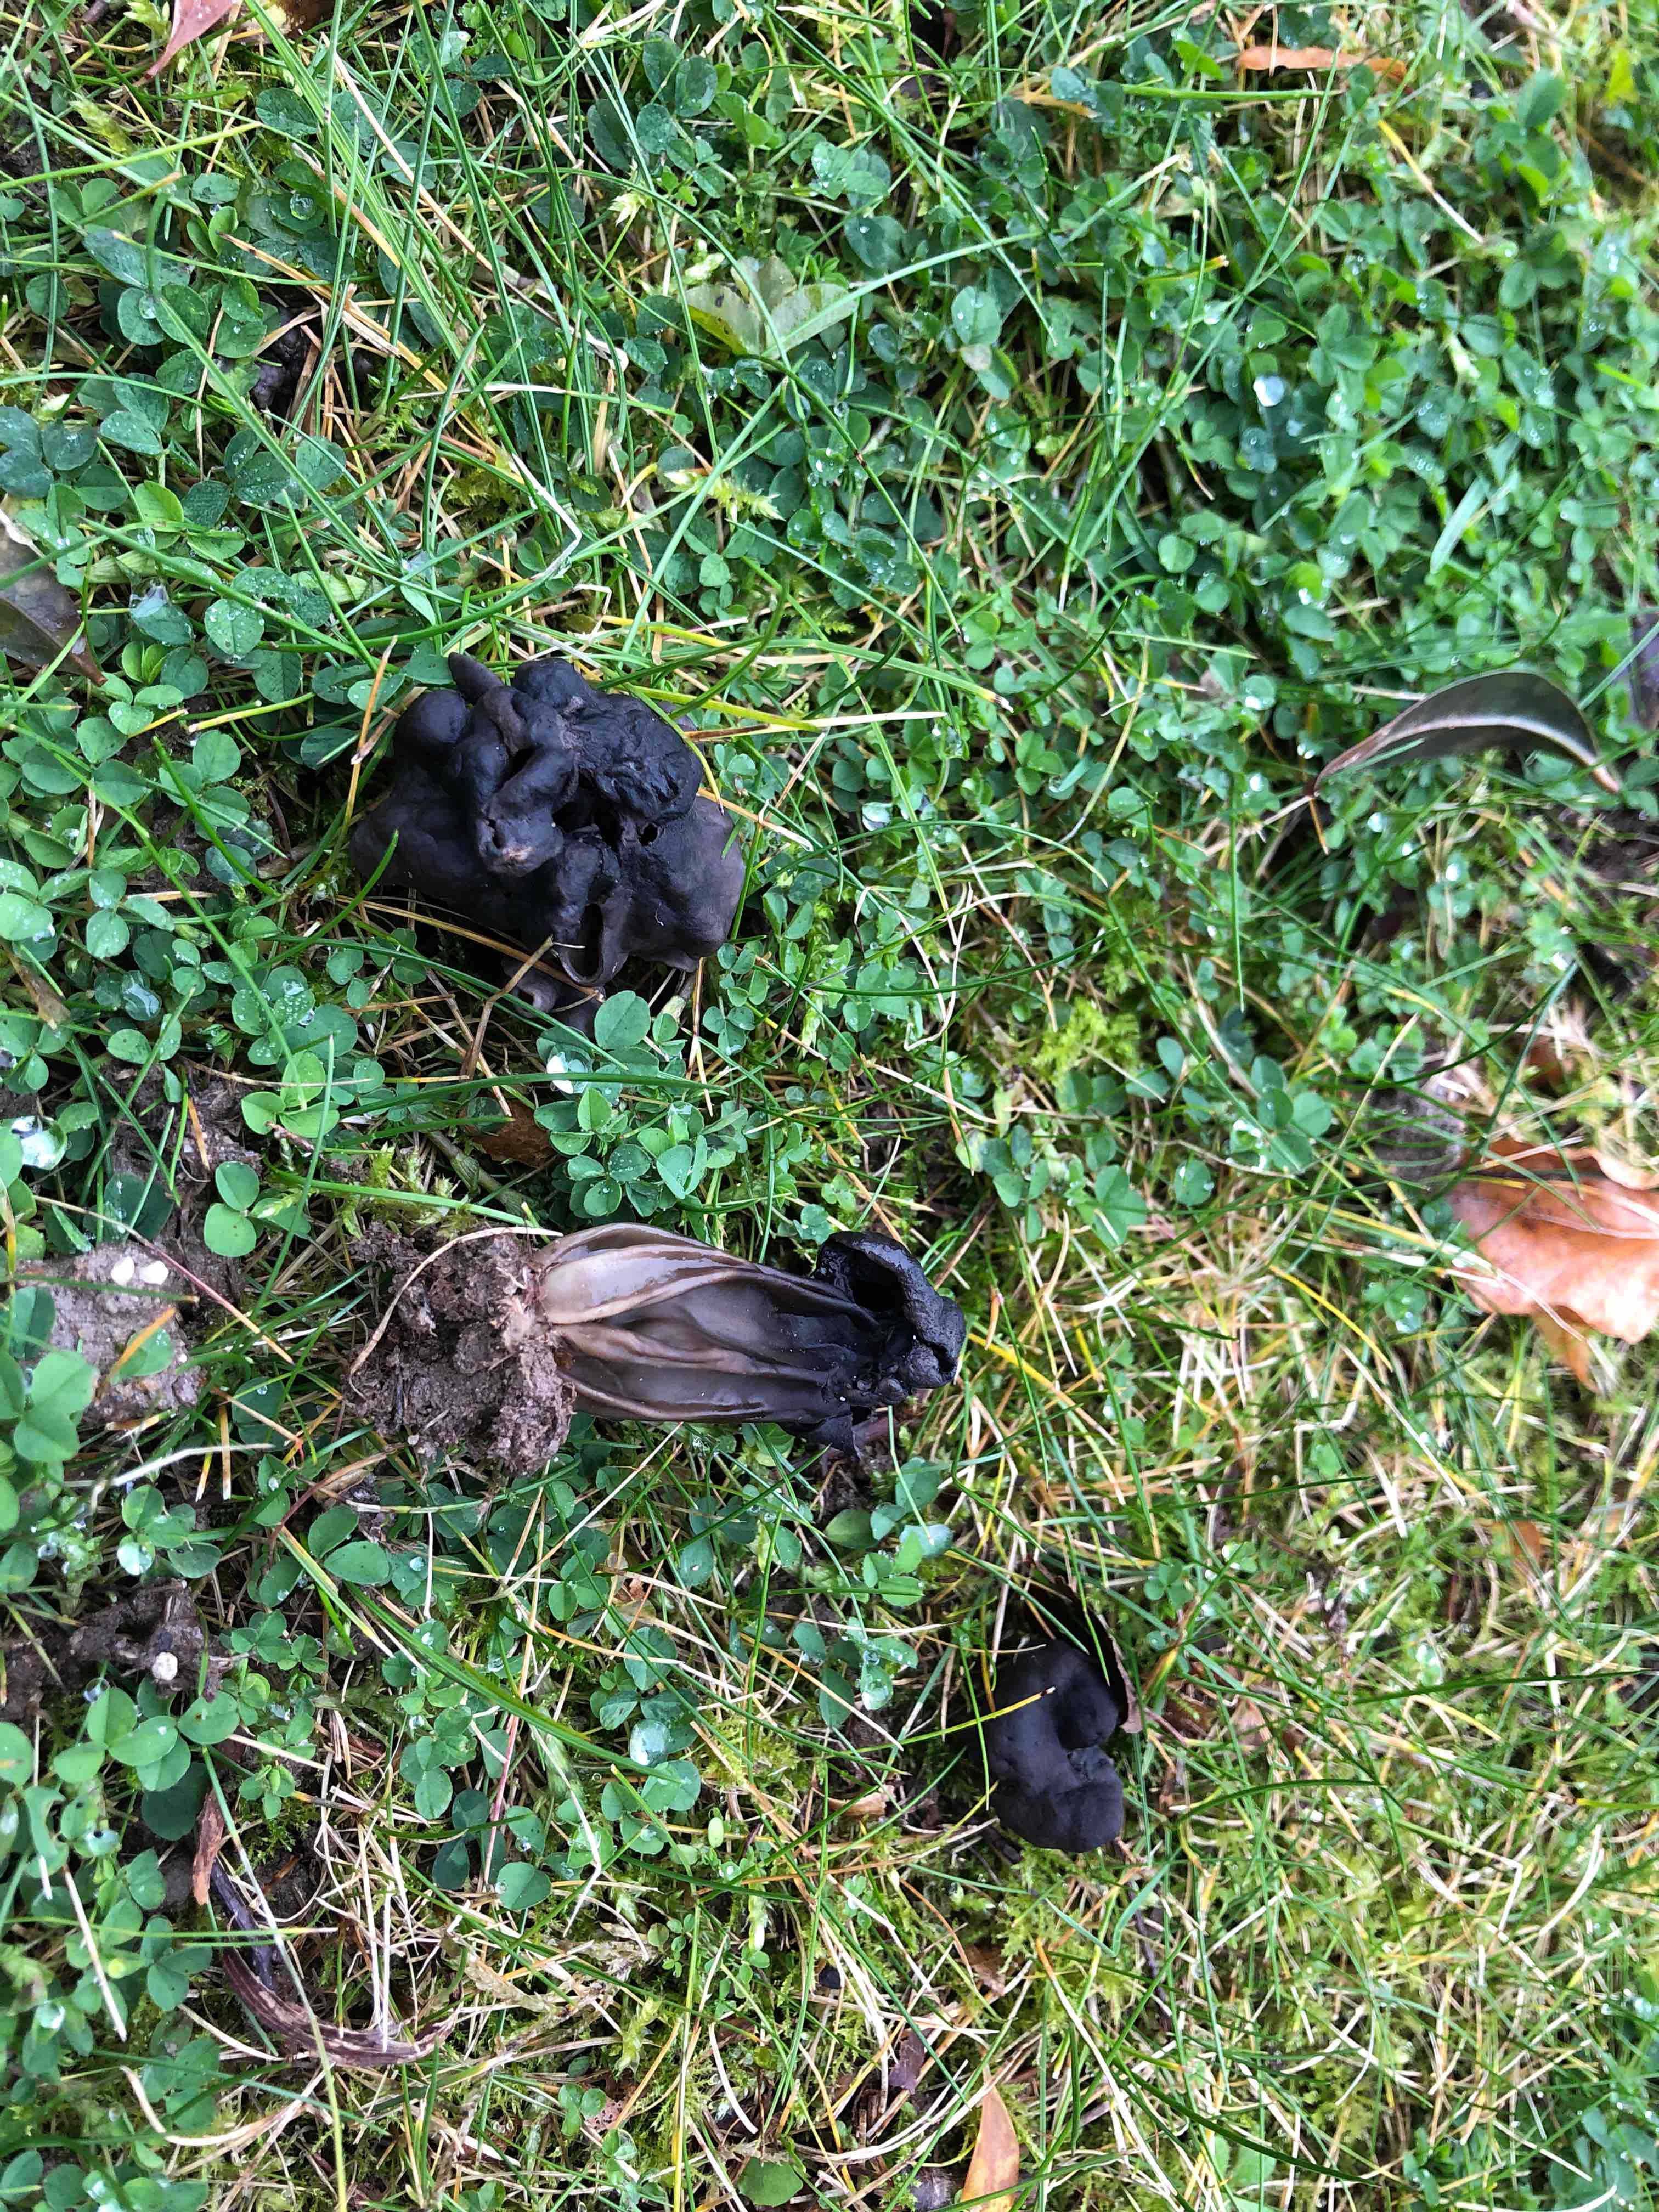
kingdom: Fungi
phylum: Ascomycota
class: Pezizomycetes
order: Pezizales
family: Helvellaceae
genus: Helvella
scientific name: Helvella lacunosa
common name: grubet foldhat
